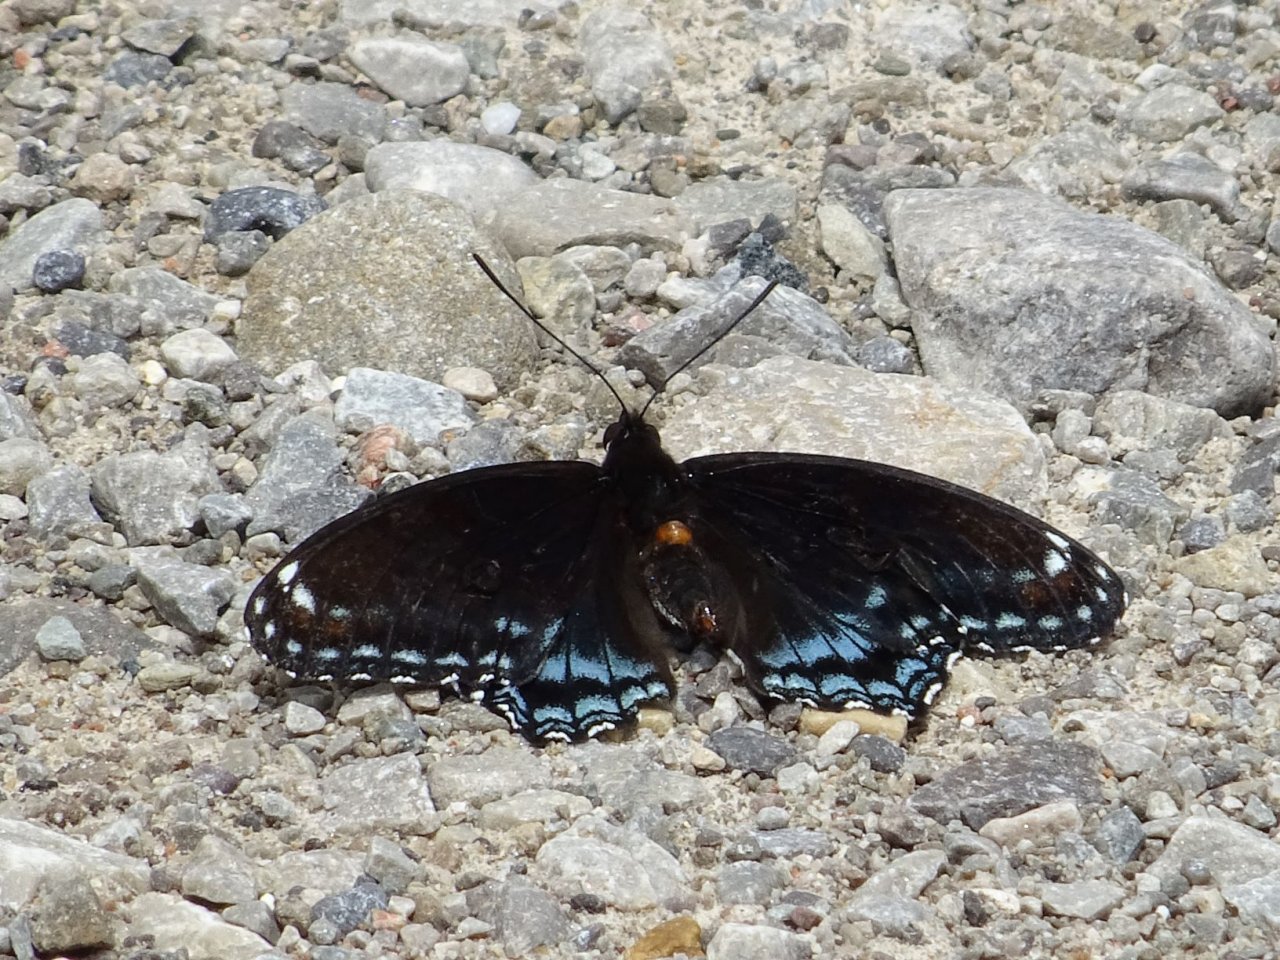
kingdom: Animalia
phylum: Arthropoda
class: Insecta
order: Lepidoptera
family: Nymphalidae
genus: Limenitis
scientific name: Limenitis astyanax
